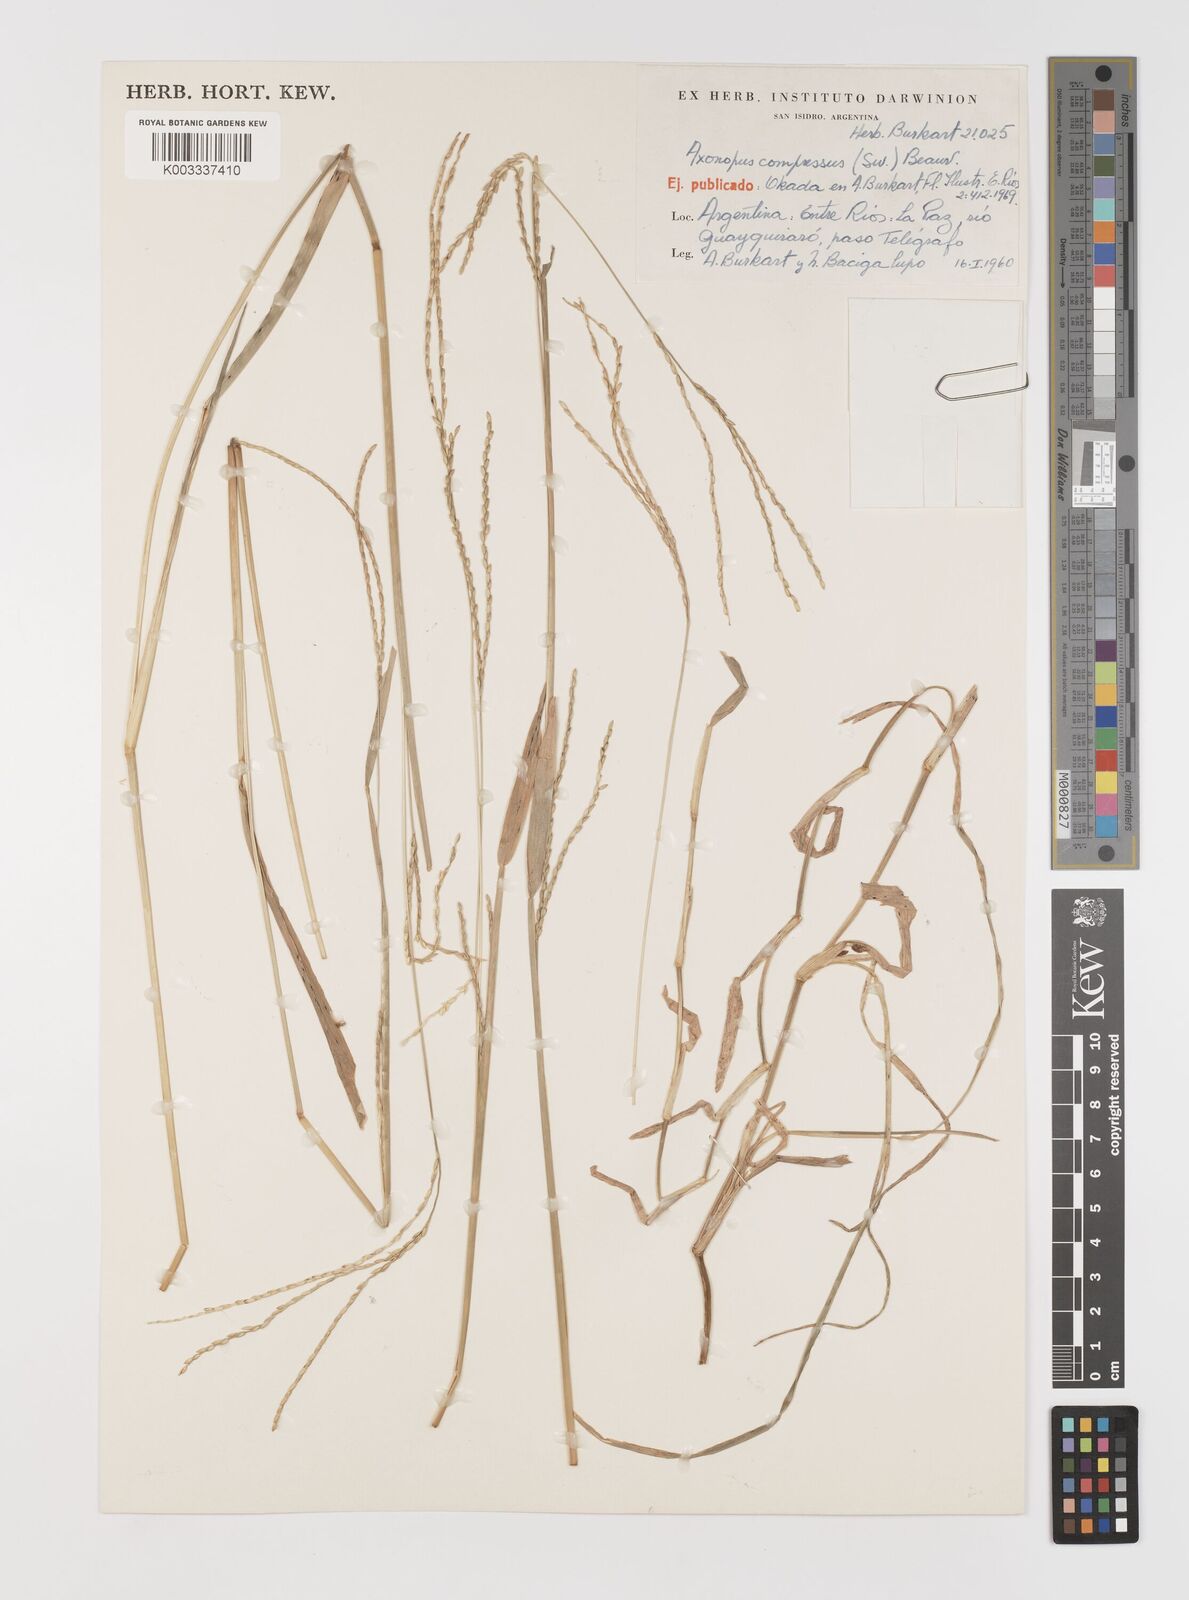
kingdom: Plantae
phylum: Tracheophyta
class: Liliopsida
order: Poales
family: Poaceae
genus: Axonopus
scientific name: Axonopus compressus
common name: American carpet grass
